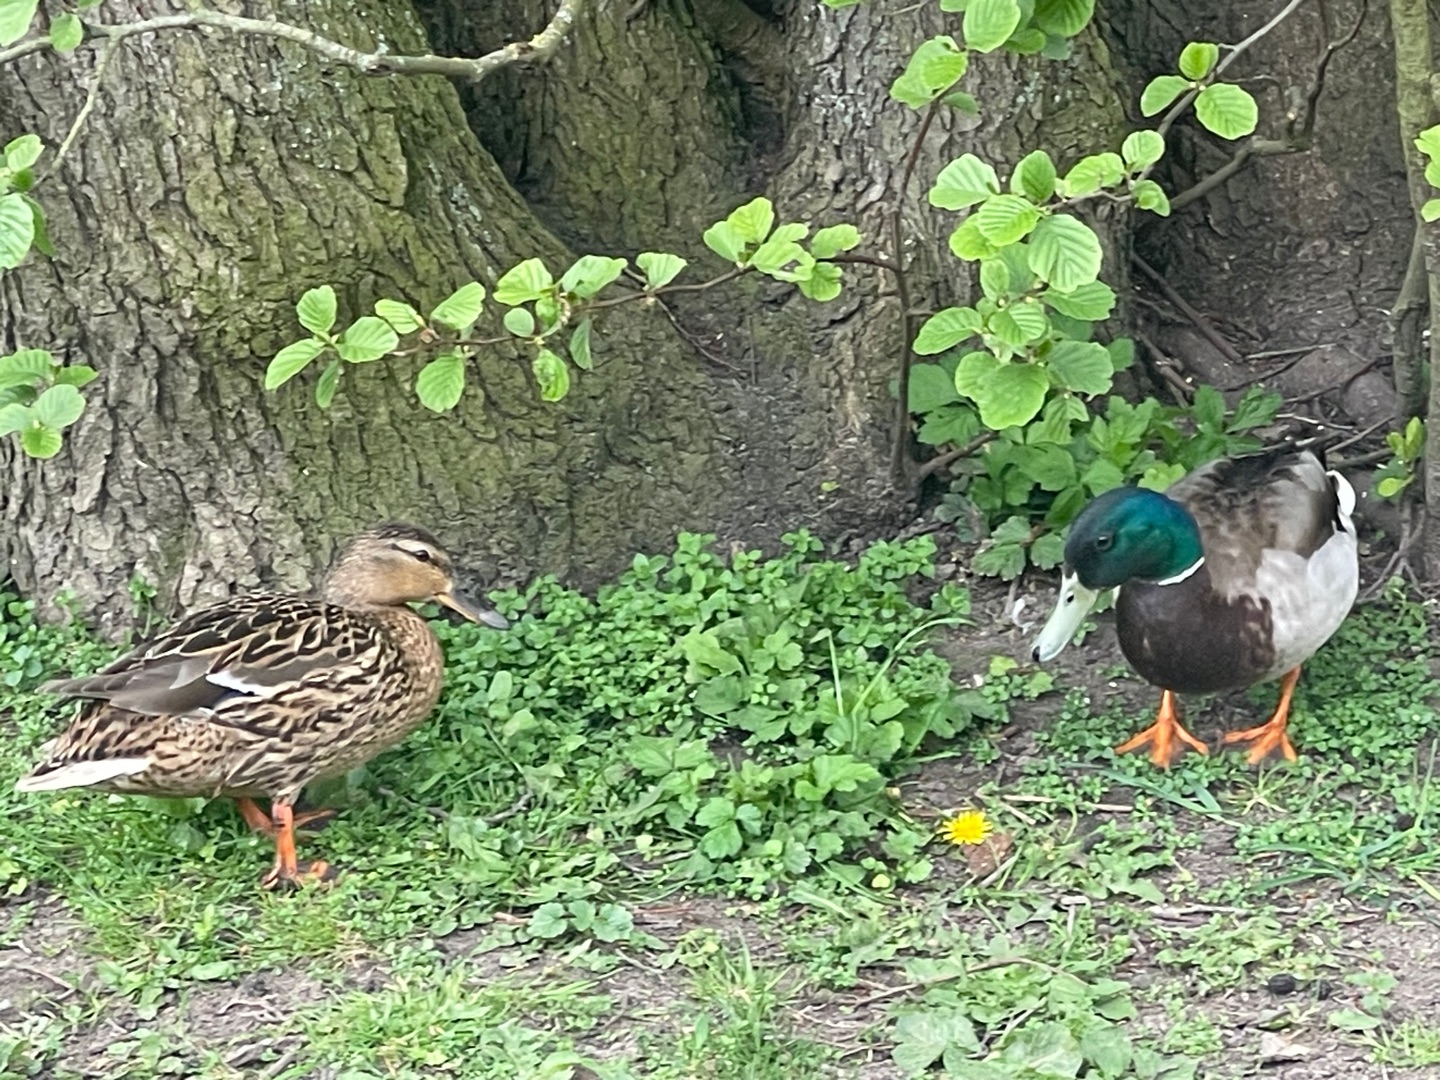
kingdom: Animalia
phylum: Chordata
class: Aves
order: Anseriformes
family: Anatidae
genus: Anas
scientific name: Anas platyrhynchos
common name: Gråand
